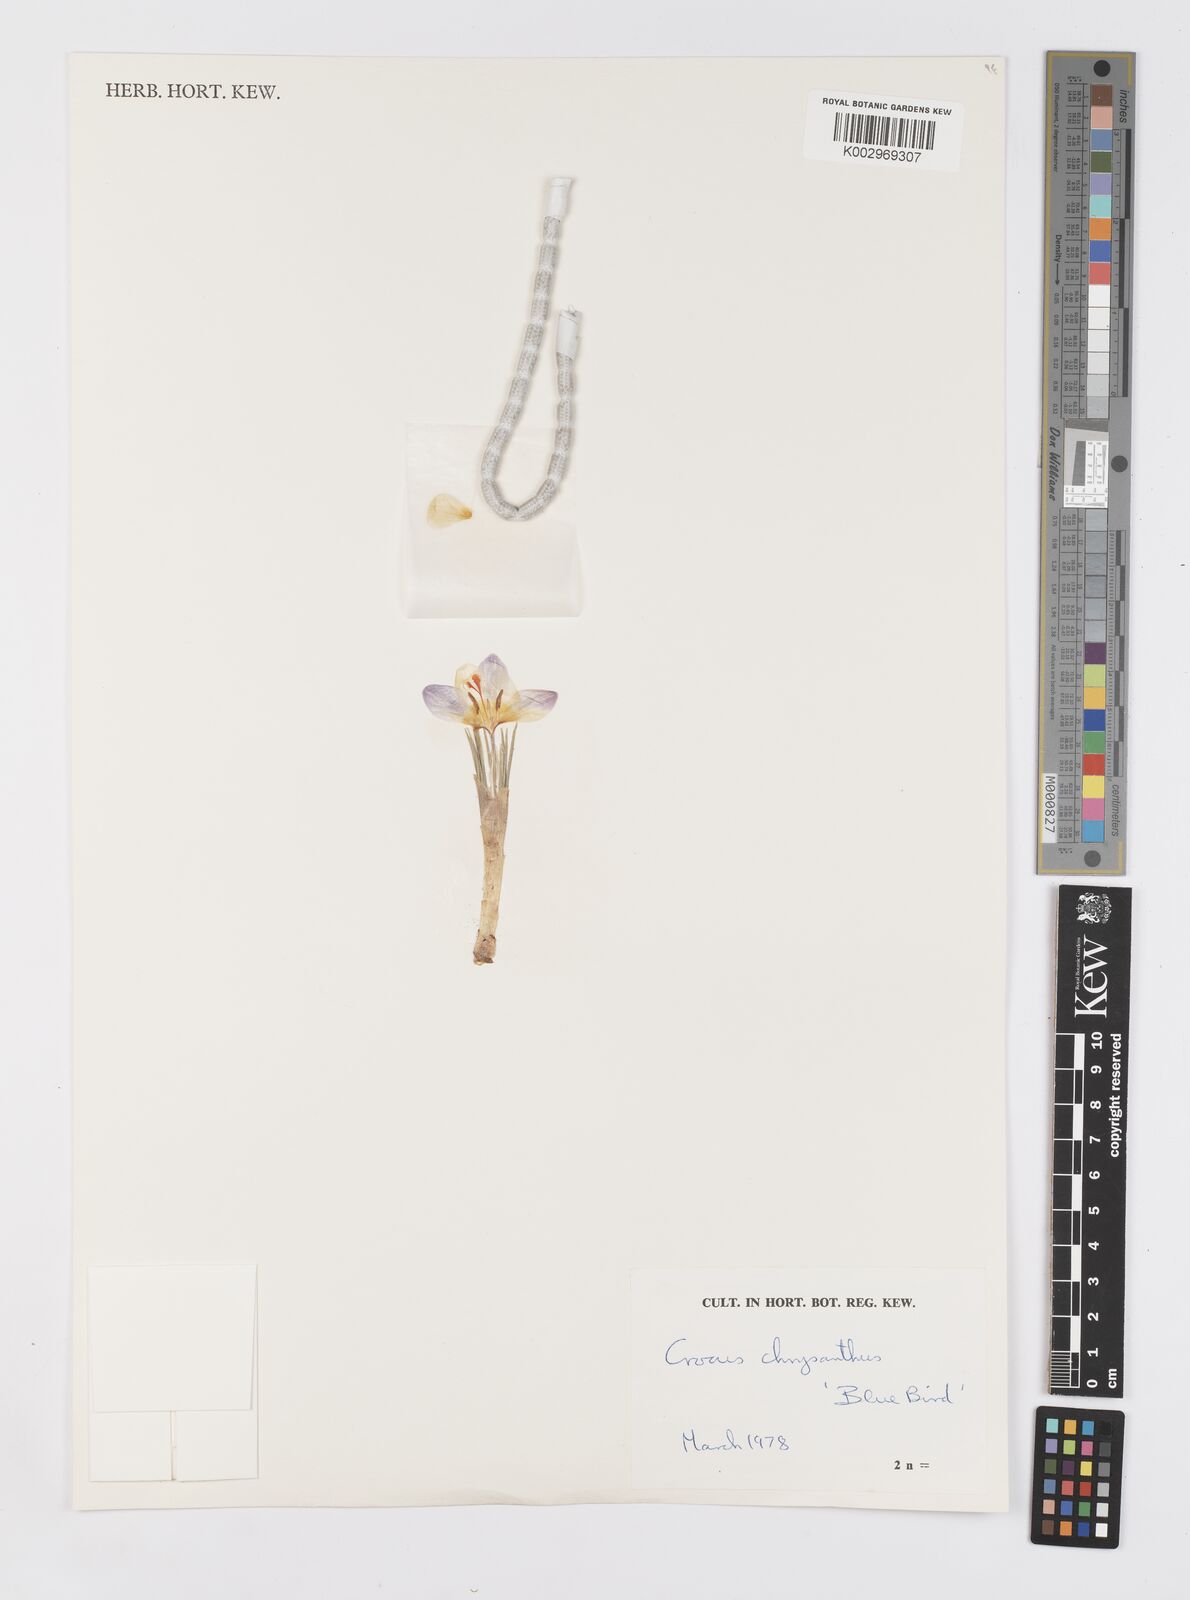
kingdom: Plantae
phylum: Tracheophyta
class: Liliopsida
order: Asparagales
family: Iridaceae
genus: Crocus
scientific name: Crocus chrysanthus
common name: Golden crocus
